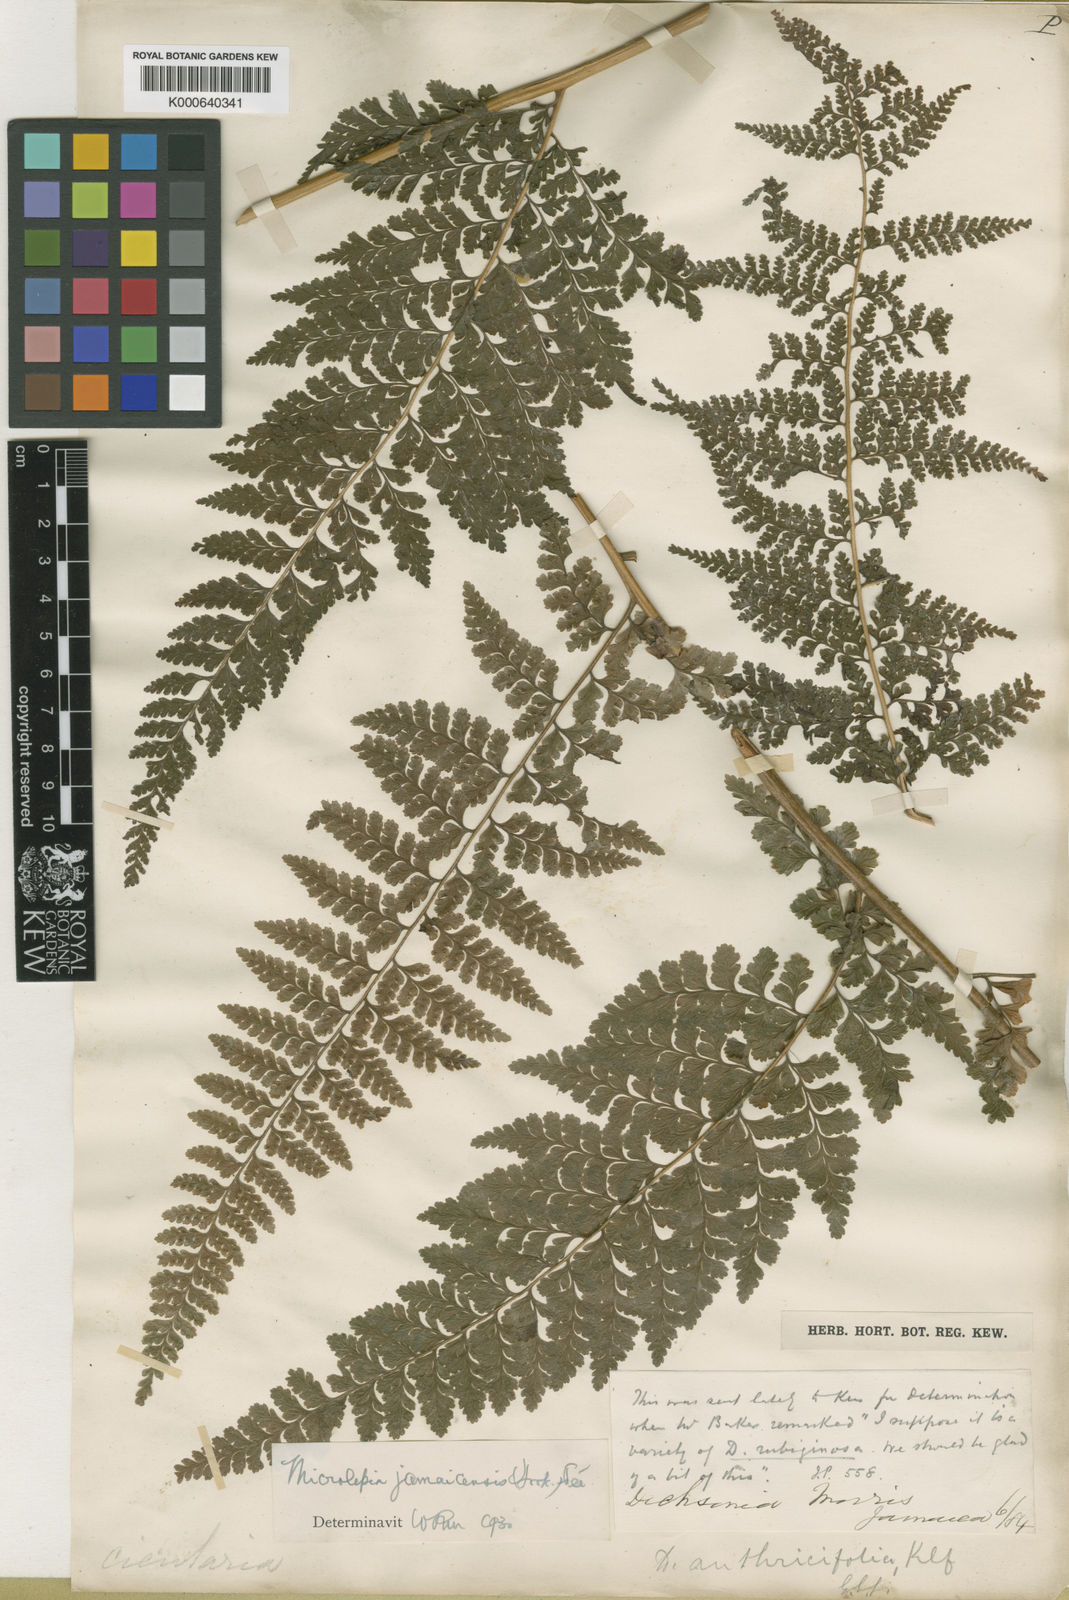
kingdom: Plantae
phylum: Tracheophyta
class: Polypodiopsida
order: Polypodiales
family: Dennstaedtiaceae
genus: Microlepia
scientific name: Microlepia
